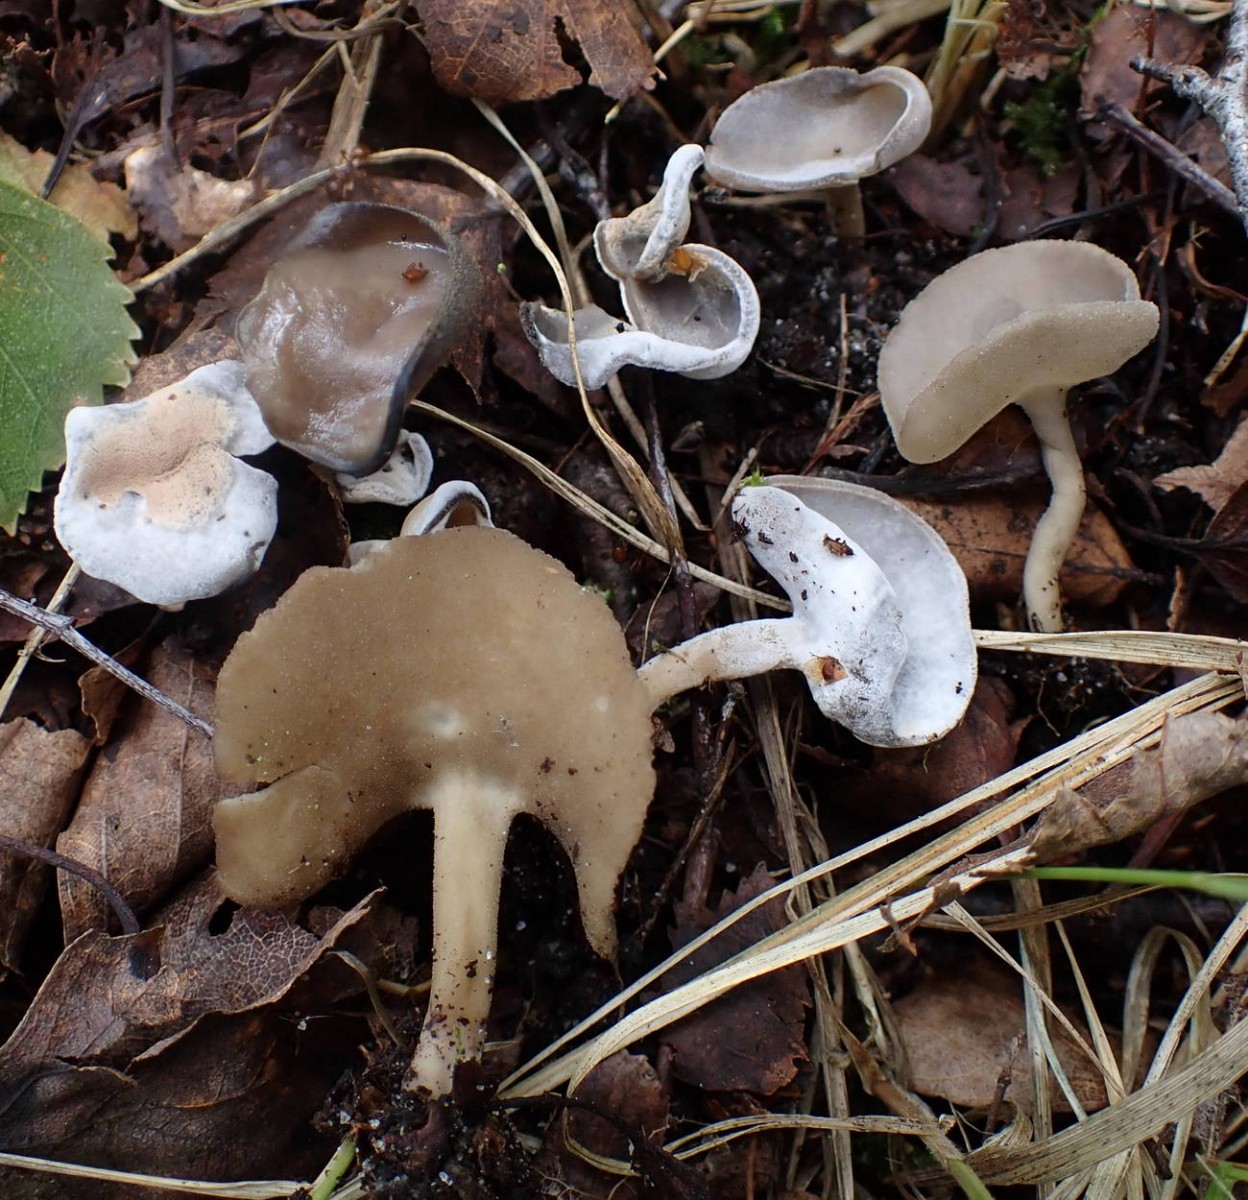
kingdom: Fungi
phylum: Ascomycota
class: Pezizomycetes
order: Pezizales
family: Helvellaceae
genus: Helvella
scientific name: Helvella fibrosa
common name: dunstokket foldhat
